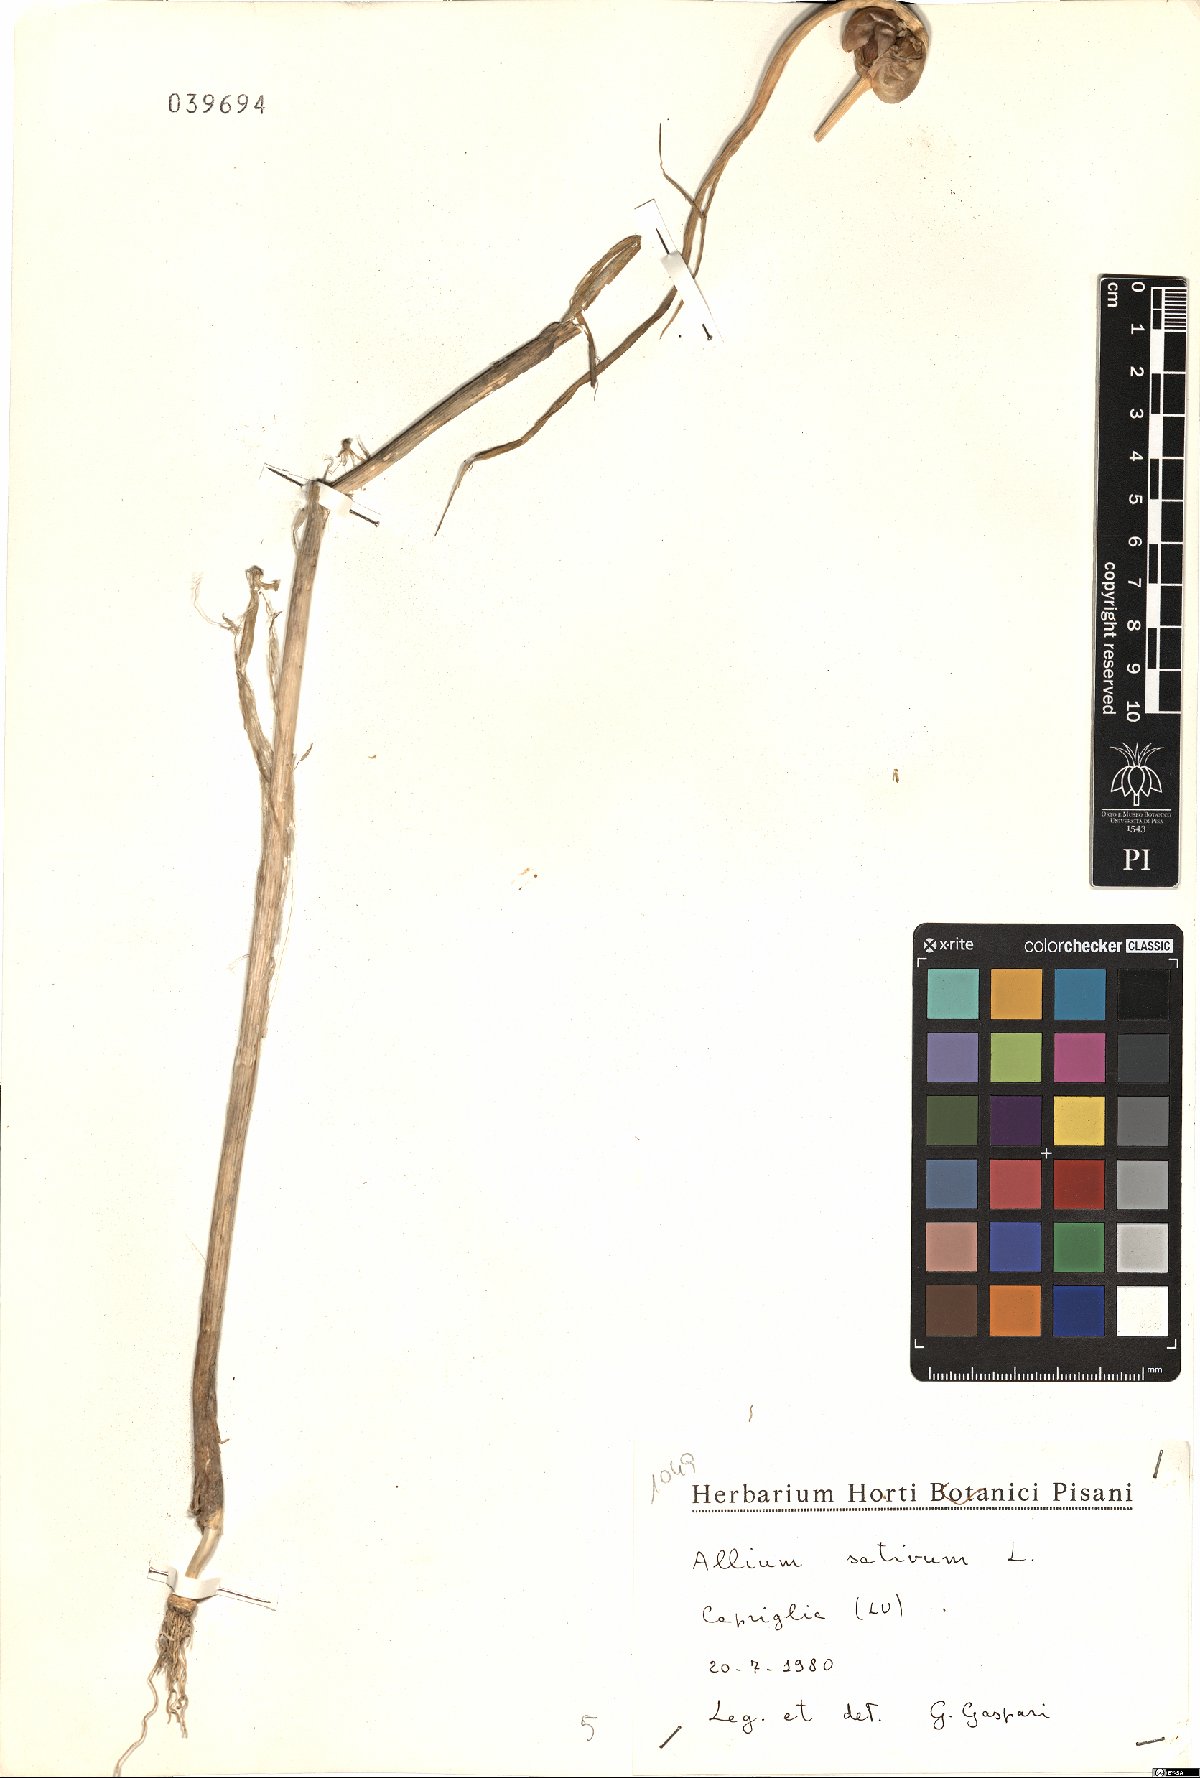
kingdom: Plantae
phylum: Tracheophyta
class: Liliopsida
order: Asparagales
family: Amaryllidaceae
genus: Allium
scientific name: Allium sativum
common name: Garlic
